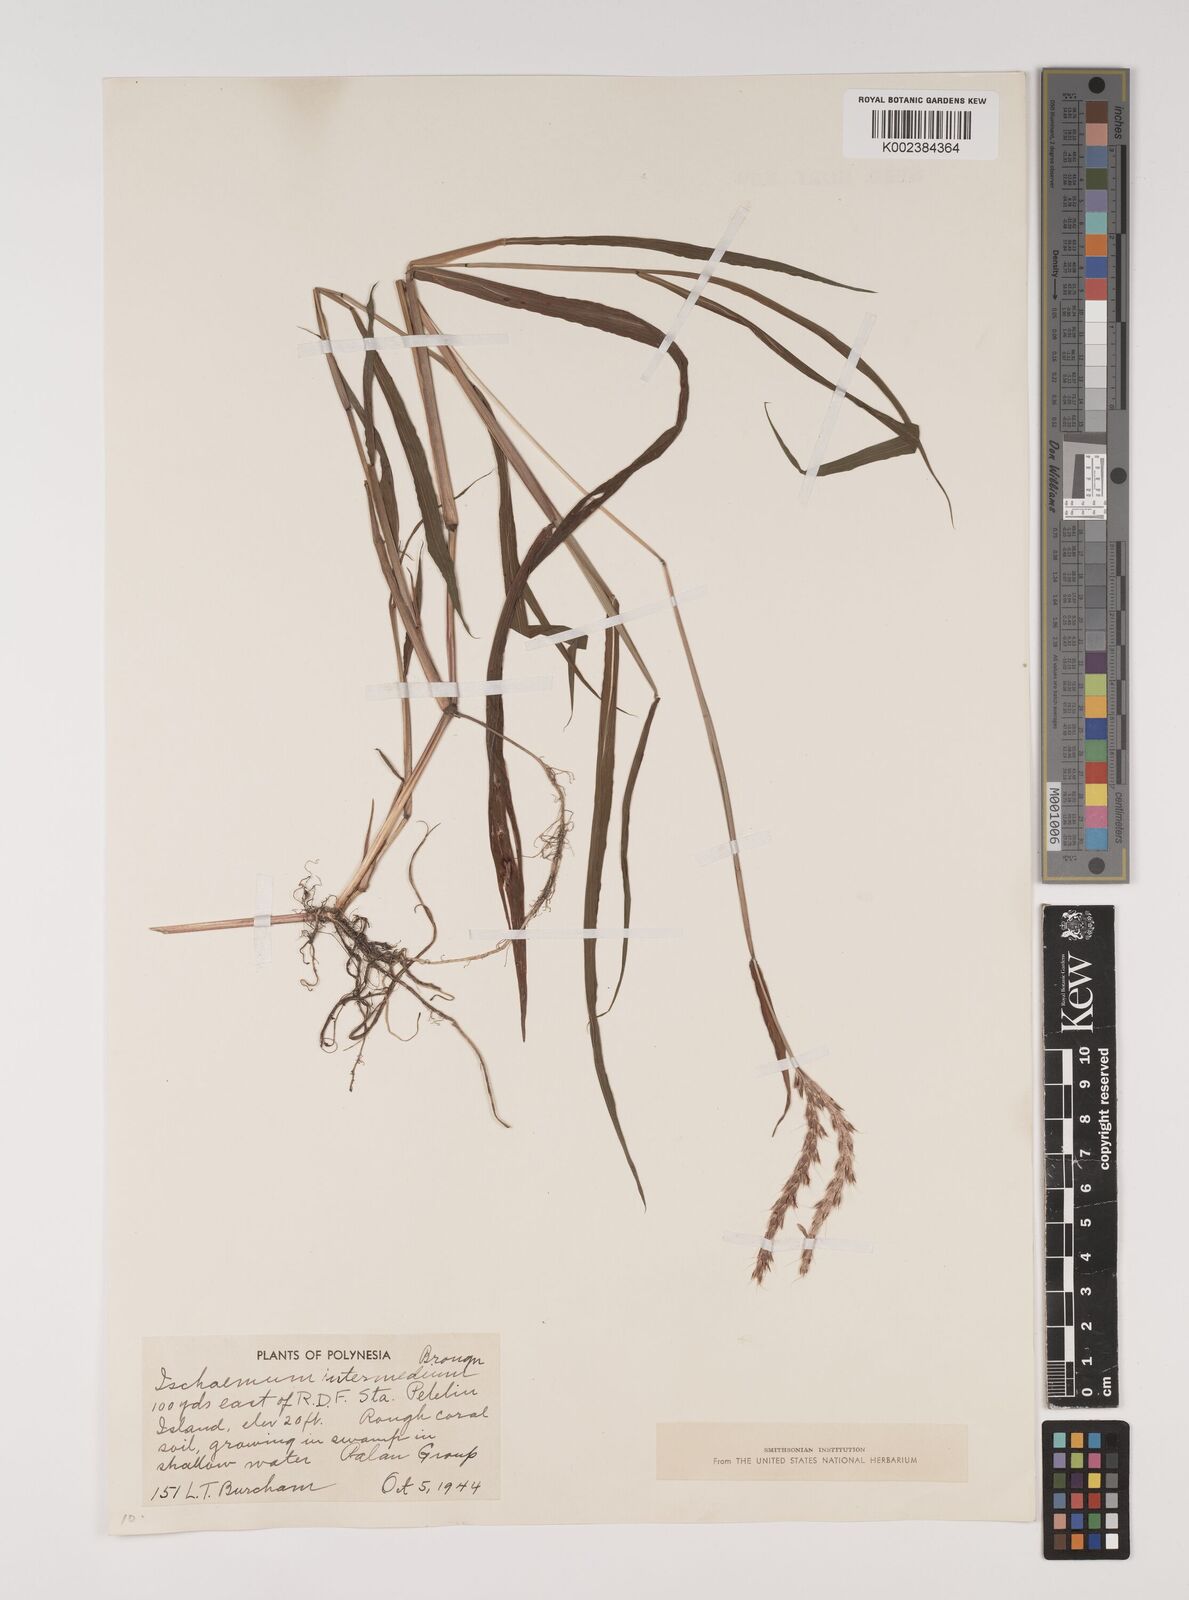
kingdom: Plantae
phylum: Tracheophyta
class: Liliopsida
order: Poales
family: Poaceae
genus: Ischaemum
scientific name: Ischaemum polystachyum
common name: Paddle grass
